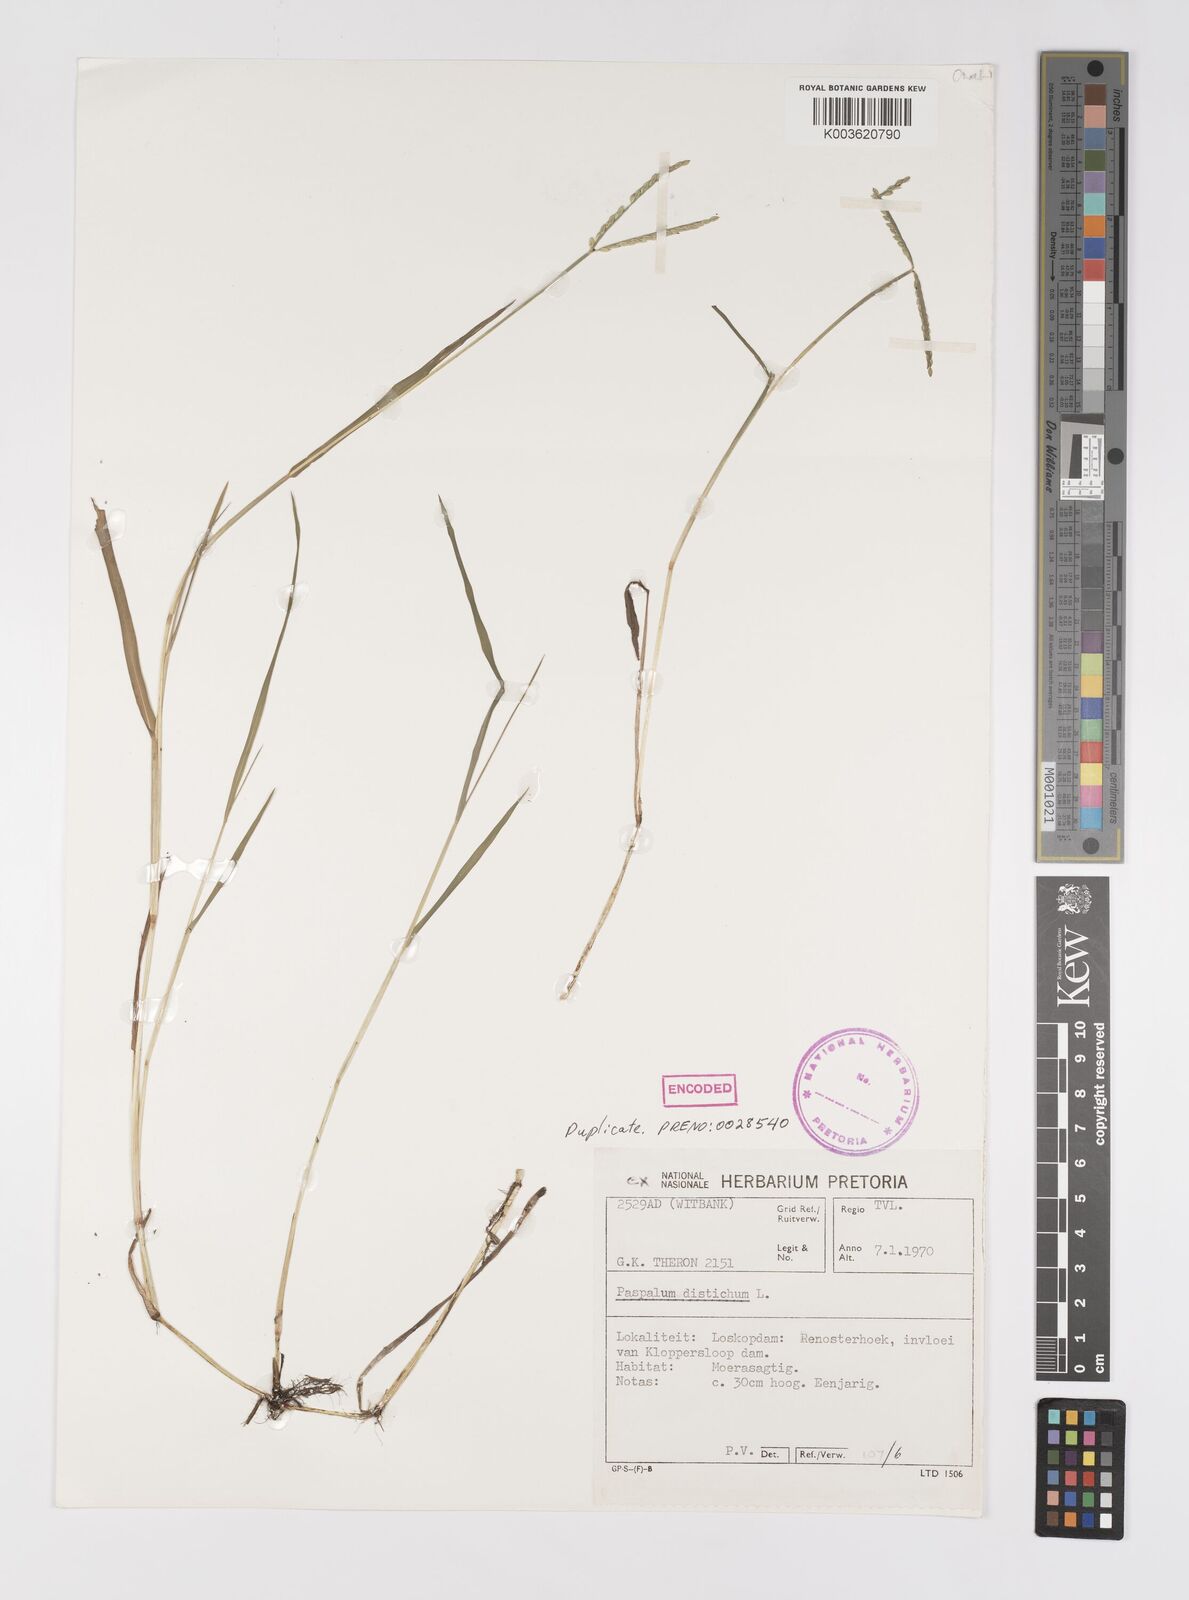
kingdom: Plantae
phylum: Tracheophyta
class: Liliopsida
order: Poales
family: Poaceae
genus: Paspalum
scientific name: Paspalum distichum
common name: Knotgrass
